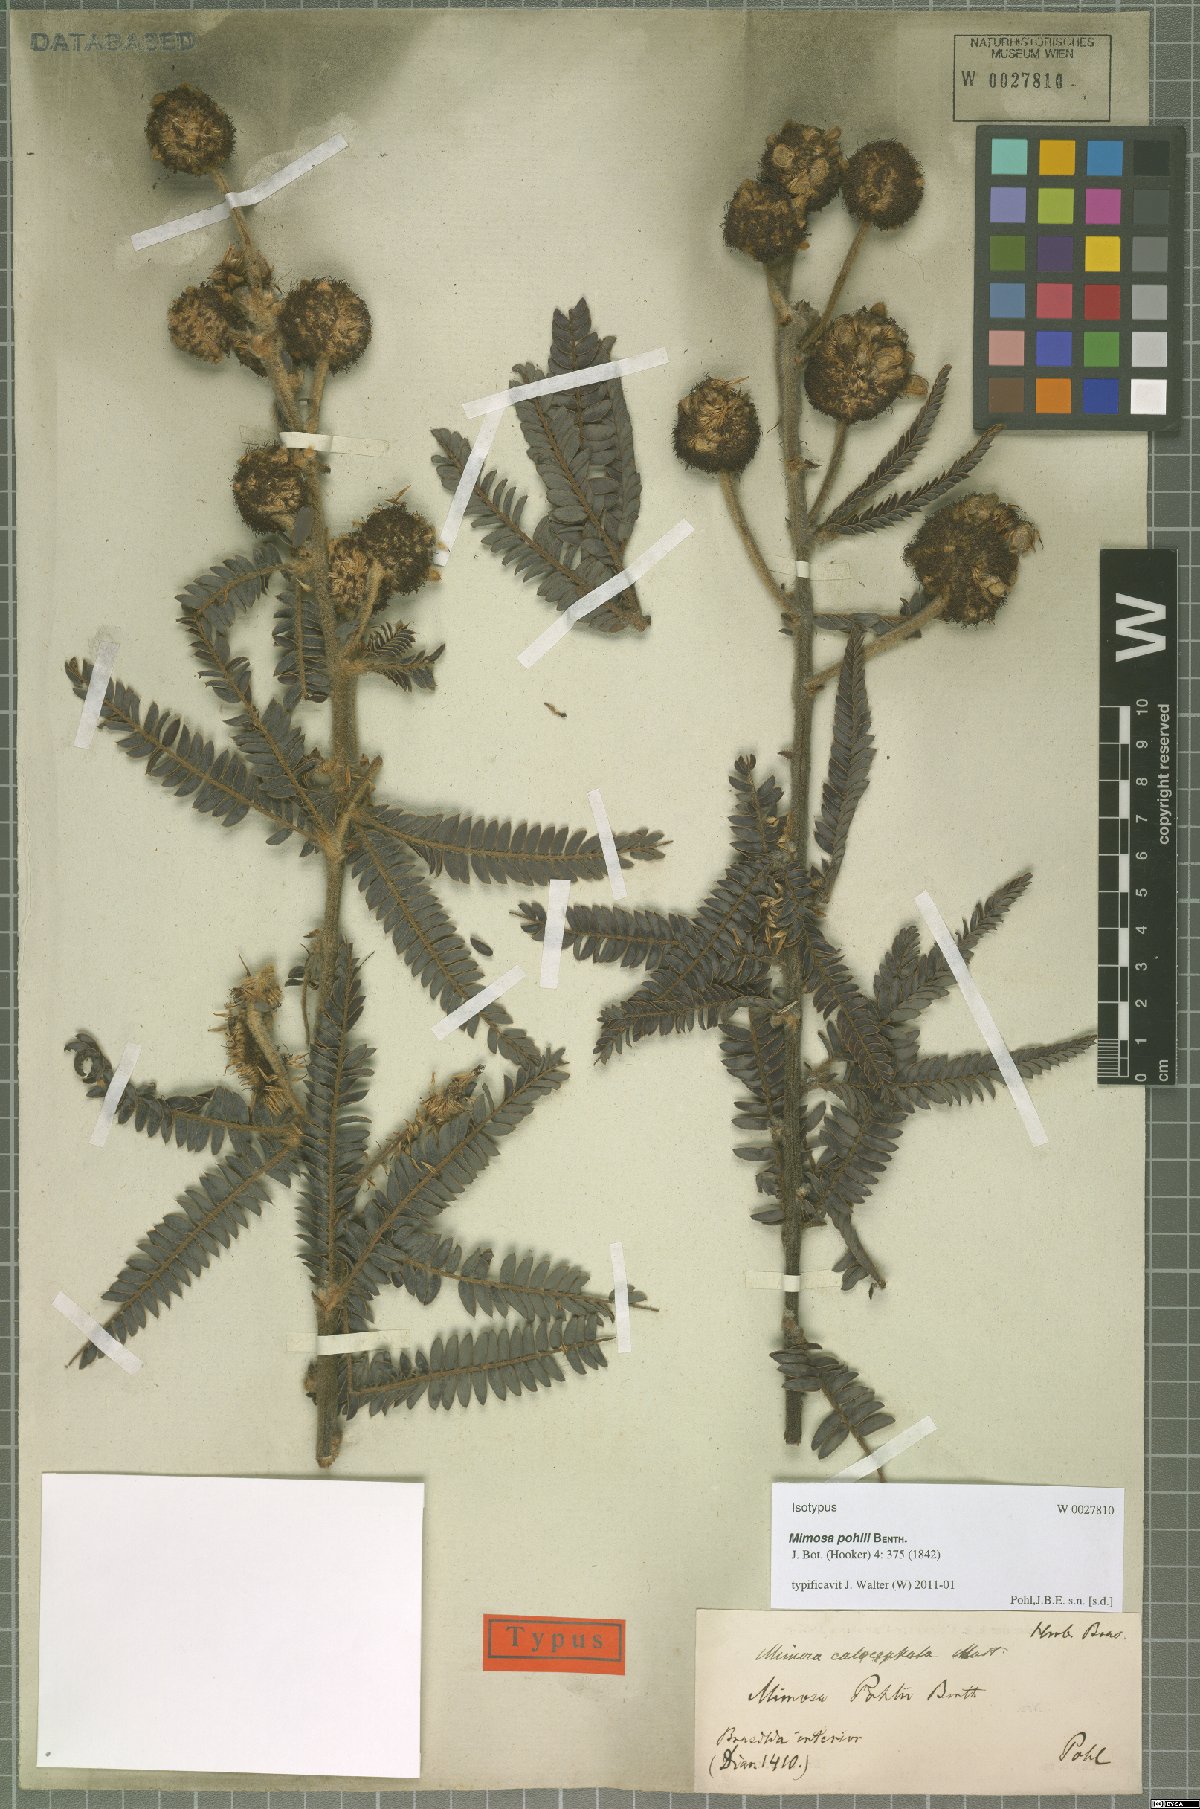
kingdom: Plantae
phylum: Tracheophyta
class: Magnoliopsida
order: Fabales
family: Fabaceae
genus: Mimosa
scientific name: Mimosa calocephala
